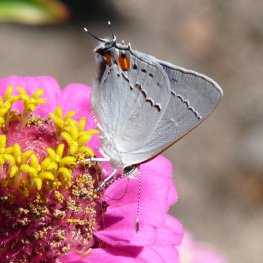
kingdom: Animalia
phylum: Arthropoda
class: Insecta
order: Lepidoptera
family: Lycaenidae
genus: Strymon
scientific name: Strymon melinus
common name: Gray Hairstreak
